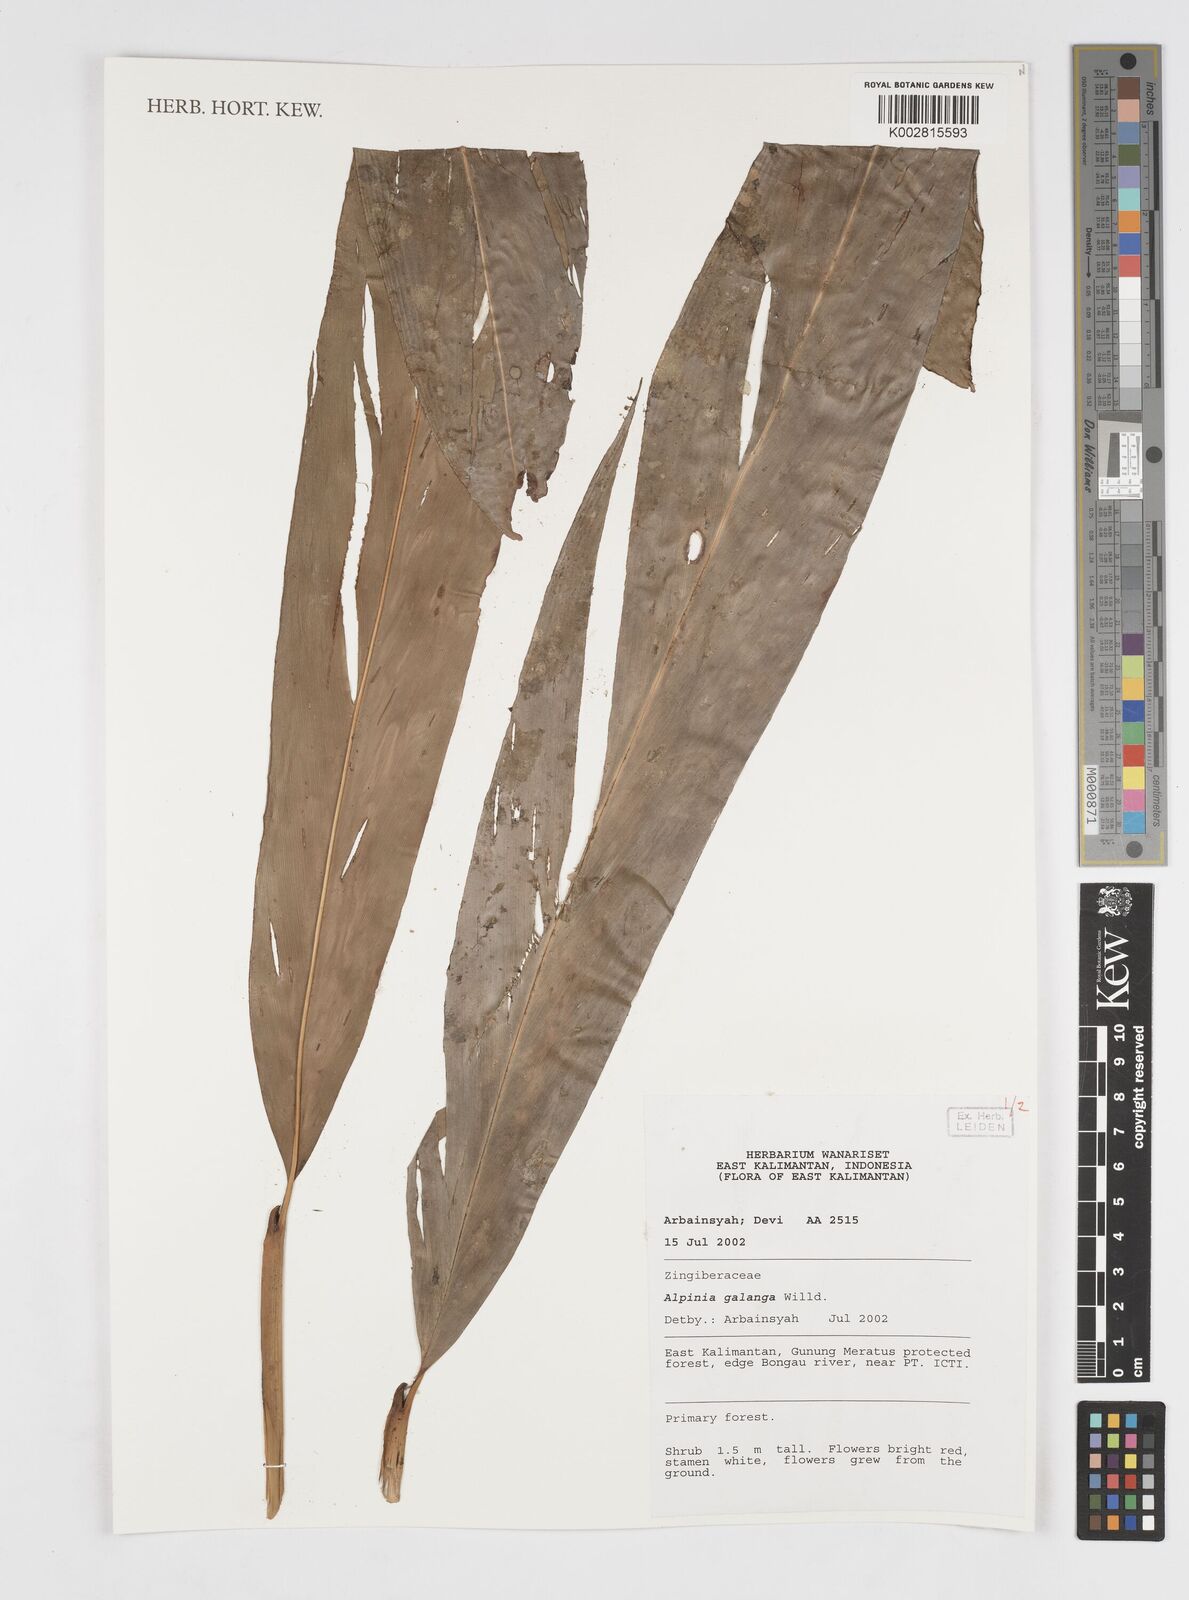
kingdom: Plantae
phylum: Tracheophyta
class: Liliopsida
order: Zingiberales
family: Zingiberaceae
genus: Alpinia
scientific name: Alpinia galanga
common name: Siamese-ginger
